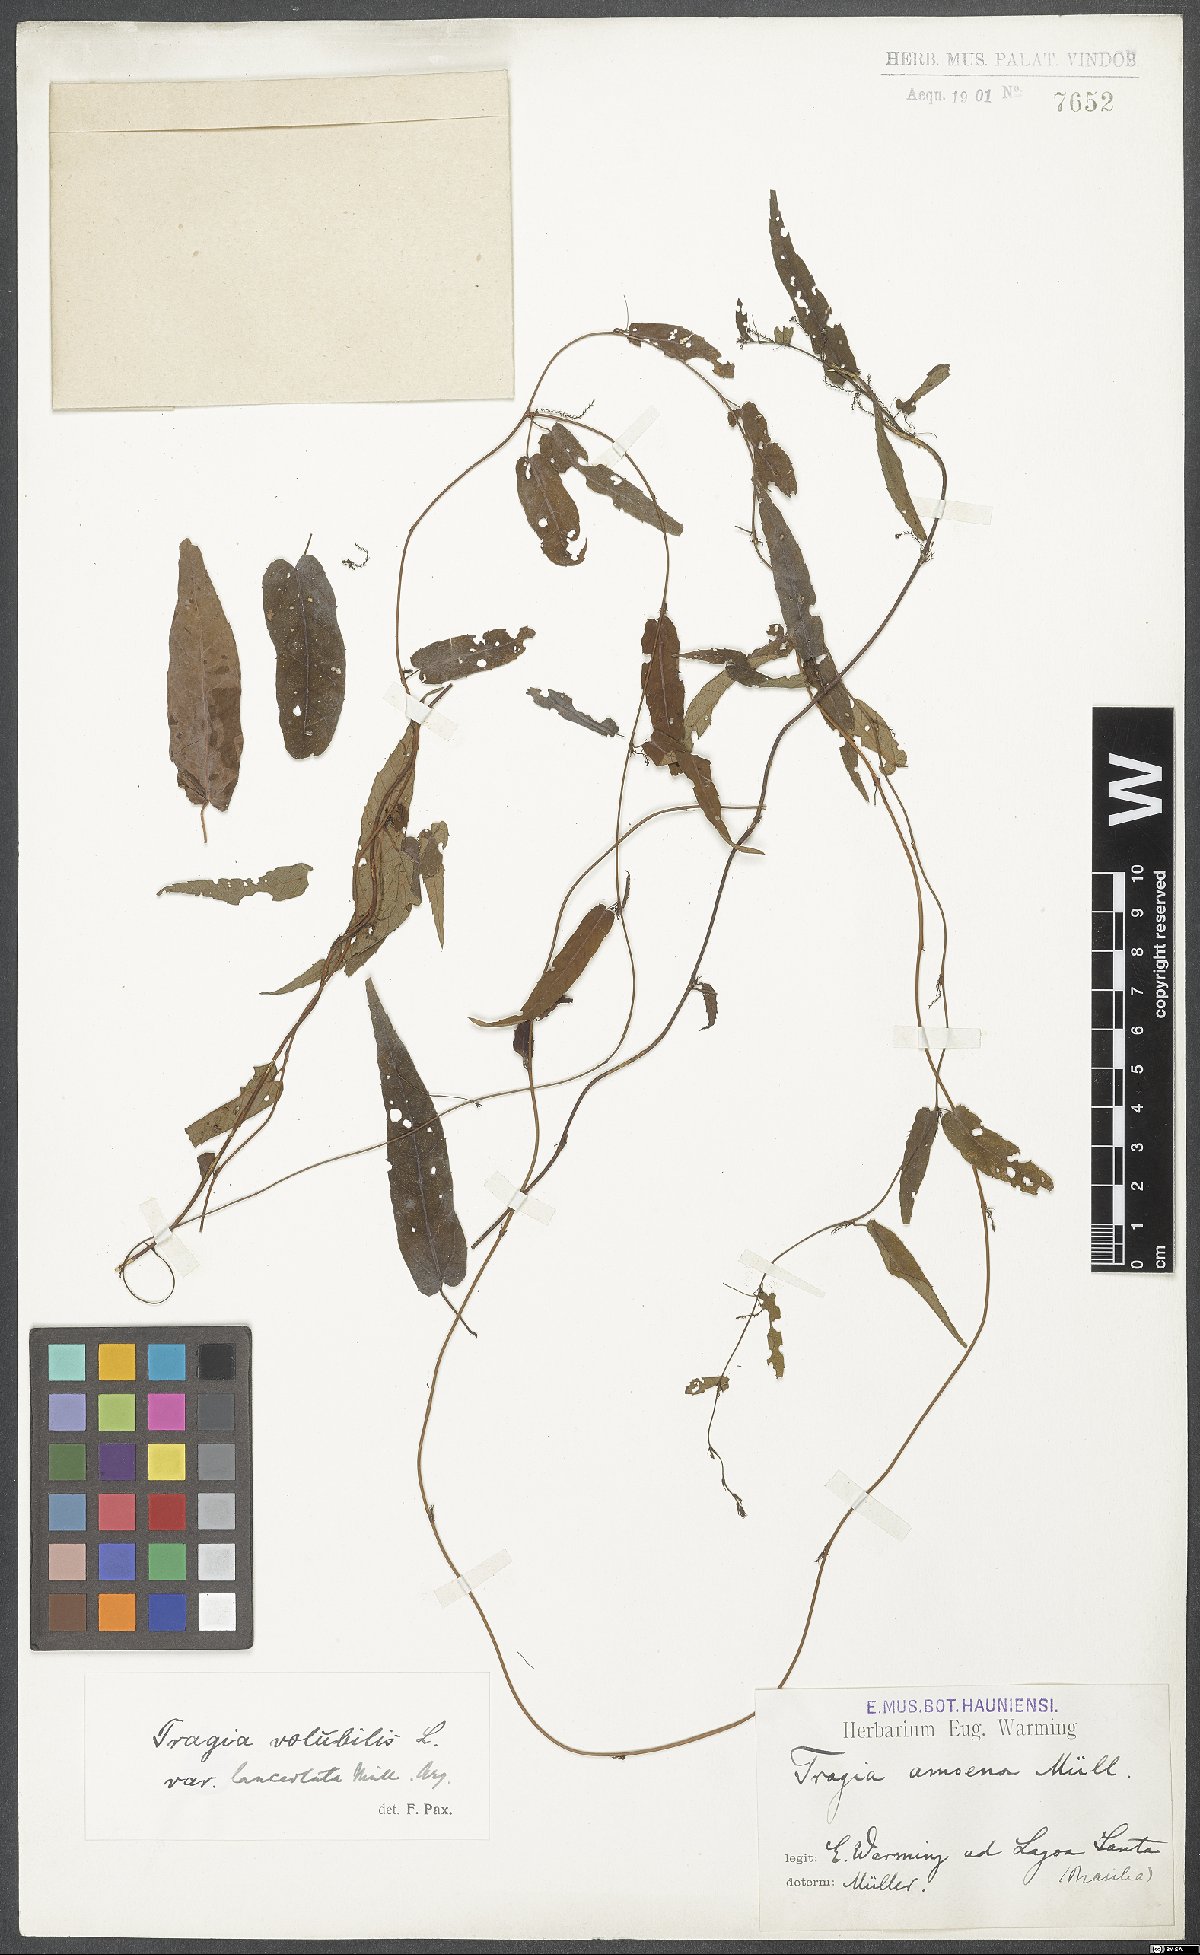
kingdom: Plantae
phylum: Tracheophyta
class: Magnoliopsida
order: Malpighiales
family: Euphorbiaceae
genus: Tragia
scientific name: Tragia volubilis
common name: Twining cow-itch
